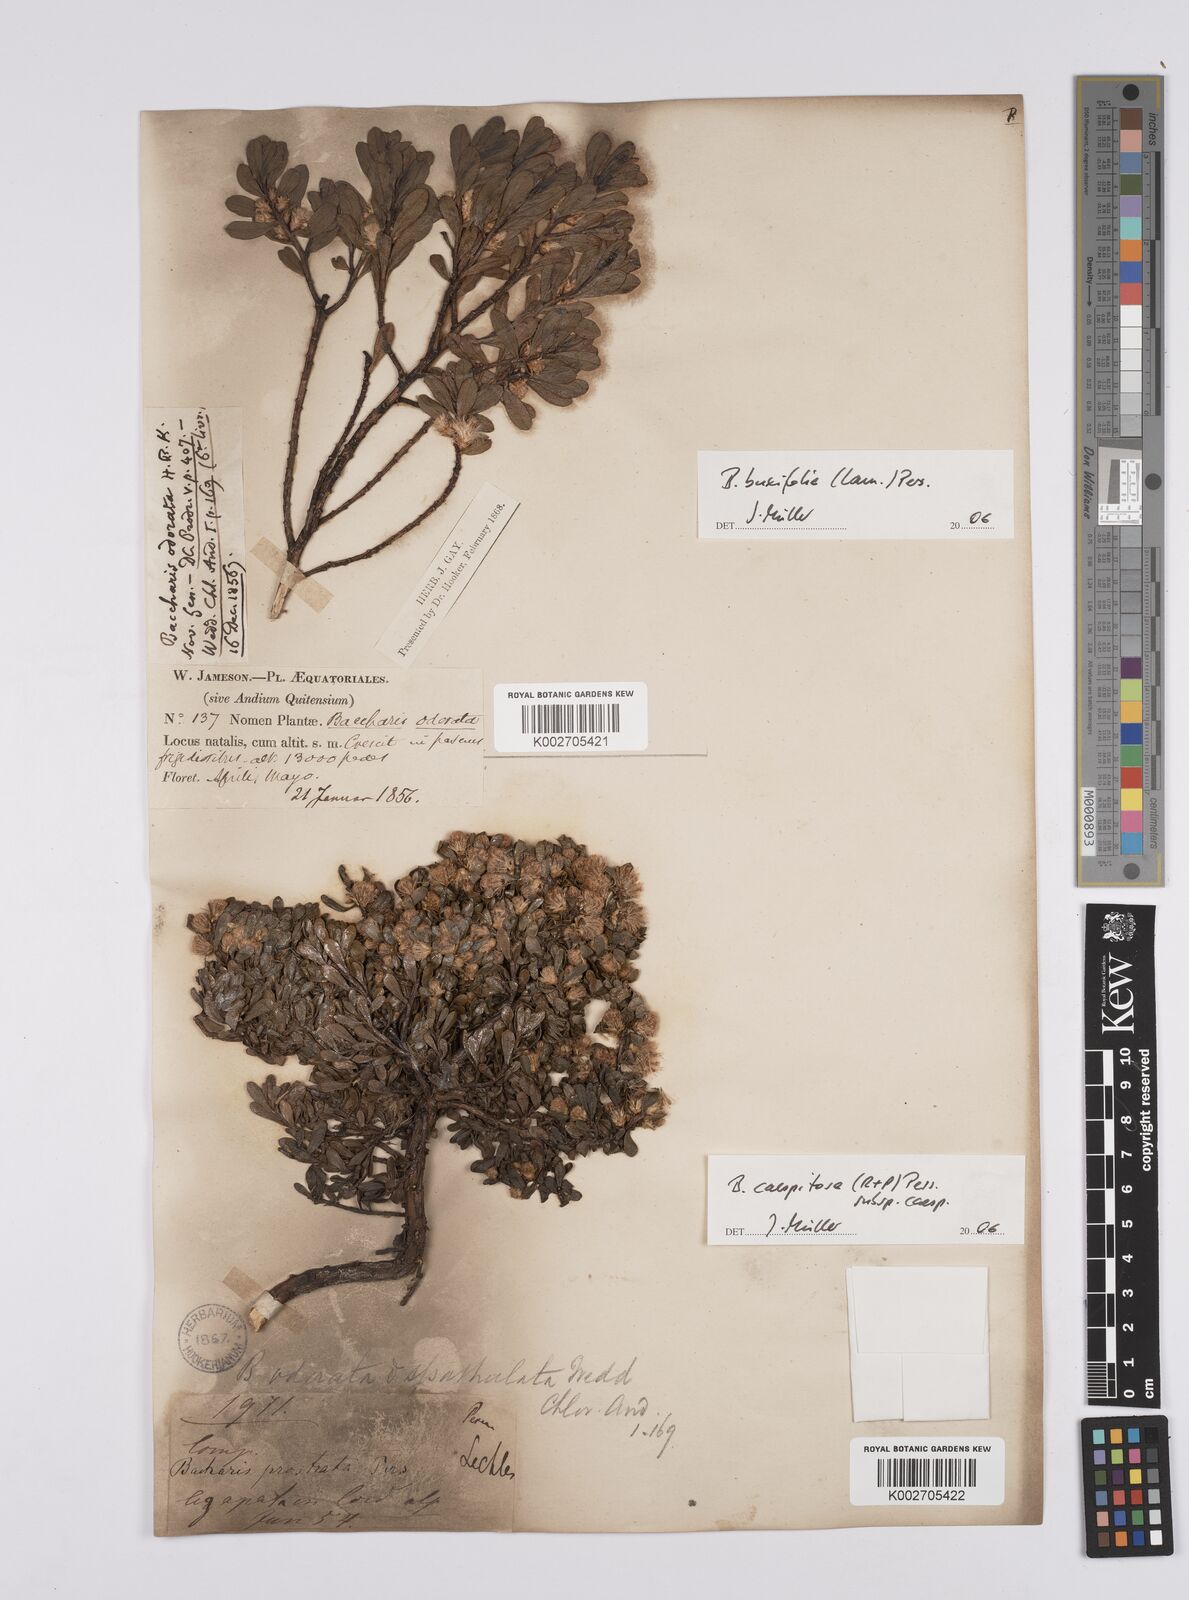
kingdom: Plantae
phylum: Tracheophyta
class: Magnoliopsida
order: Asterales
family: Asteraceae
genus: Baccharis
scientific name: Baccharis buxifolia
